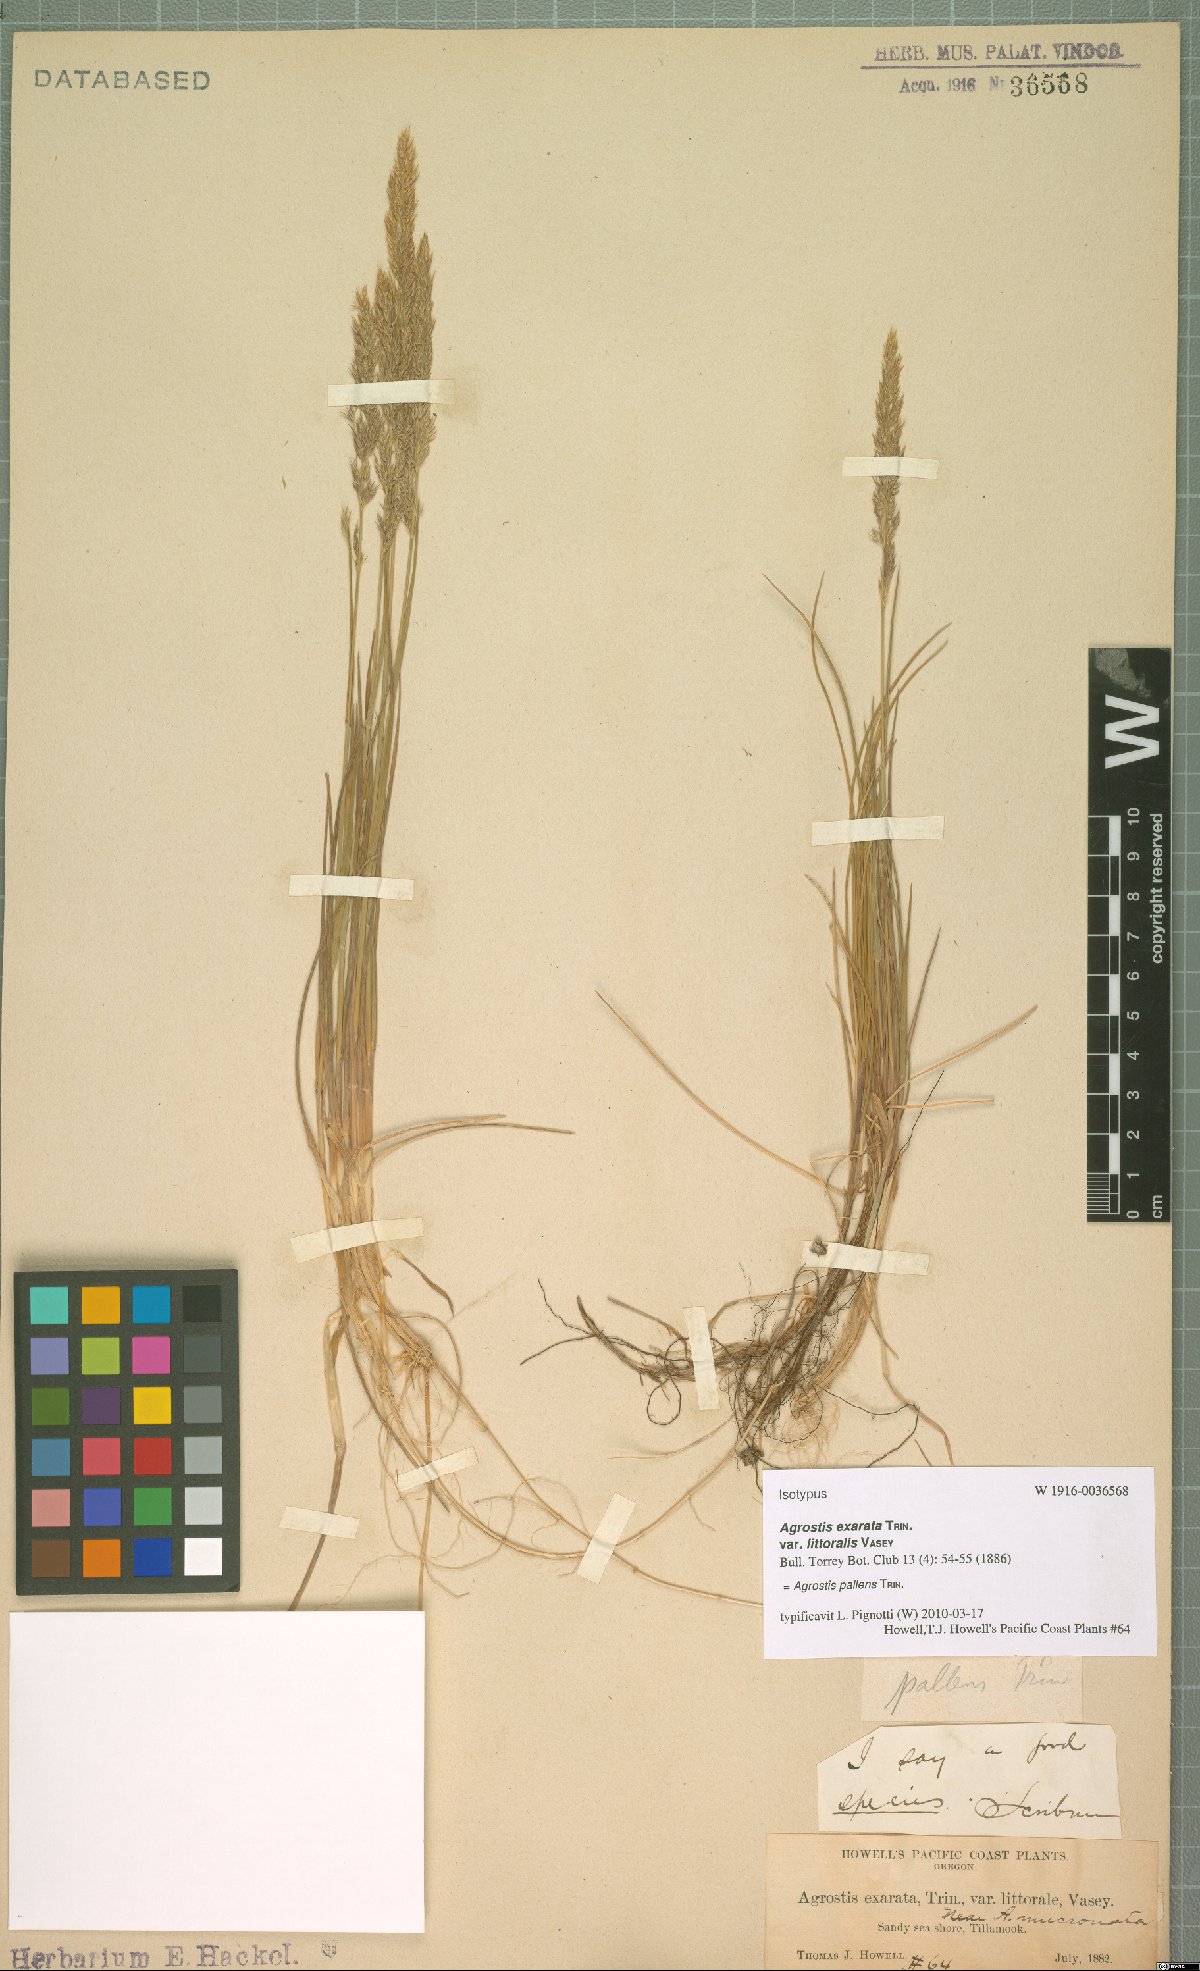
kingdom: Plantae
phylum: Tracheophyta
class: Liliopsida
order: Poales
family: Poaceae
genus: Agrostis
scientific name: Agrostis pallens
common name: Dune bent
